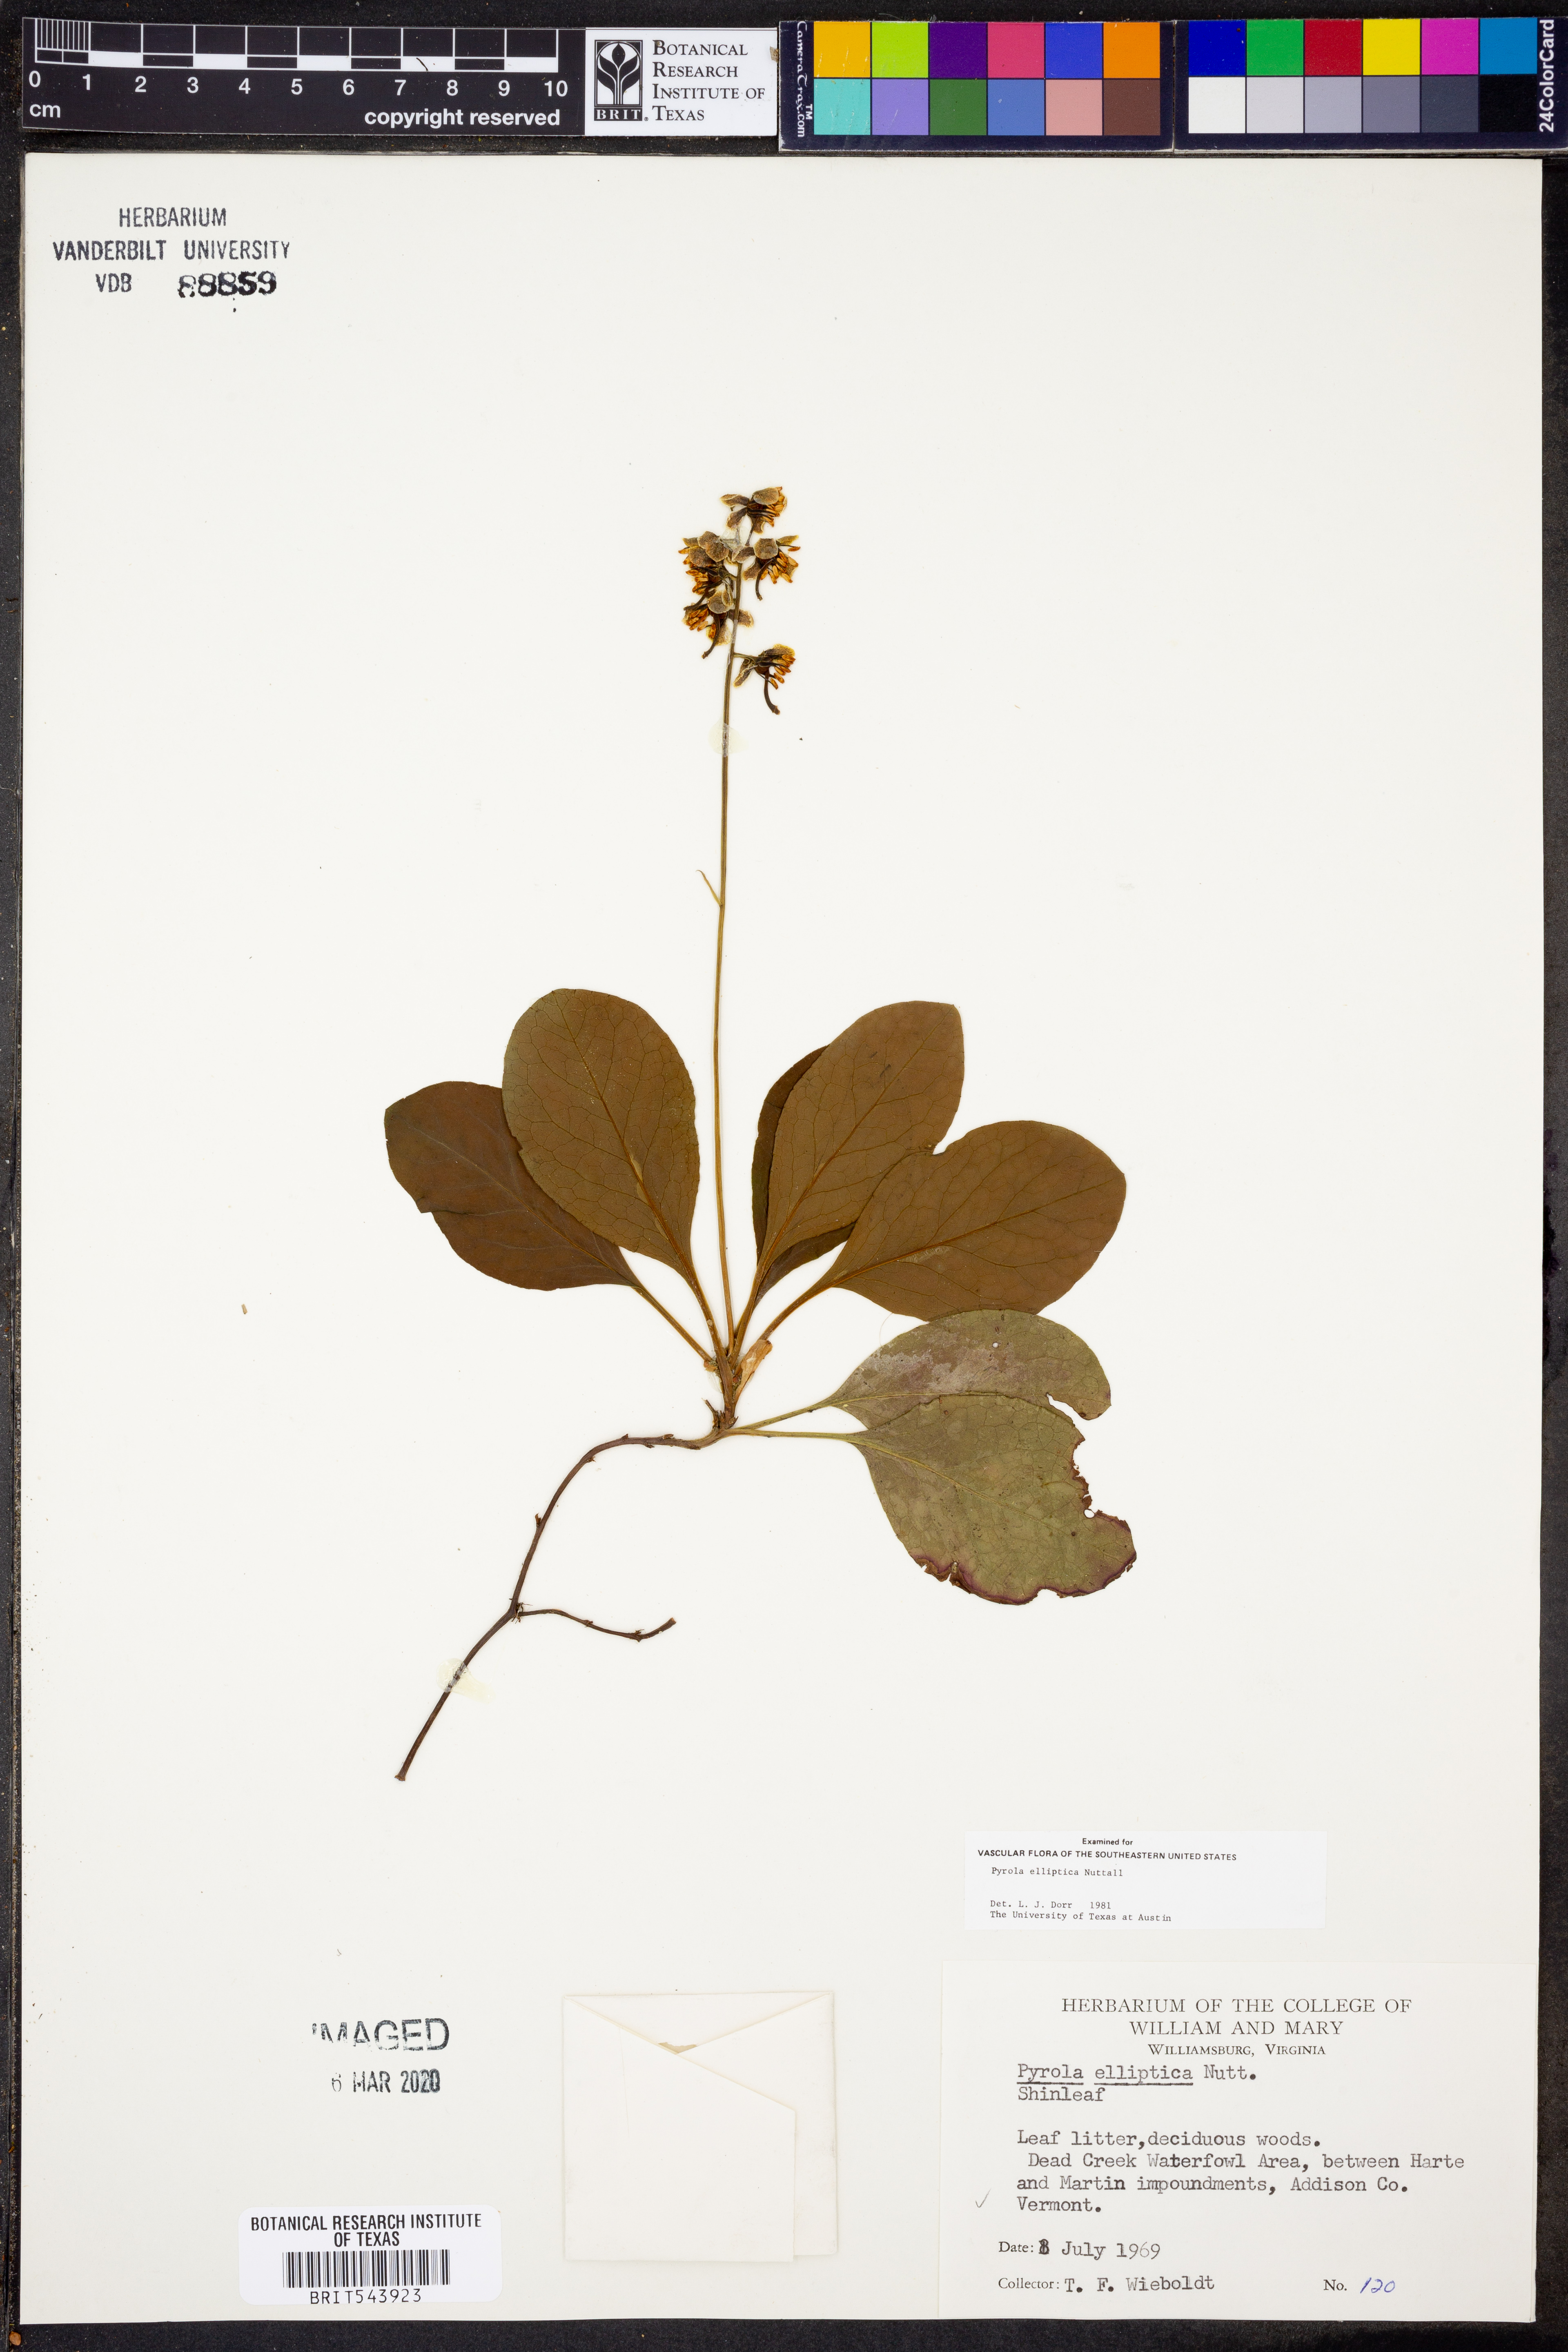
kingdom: Plantae
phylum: Tracheophyta
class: Magnoliopsida
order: Ericales
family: Ericaceae
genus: Pyrola
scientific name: Pyrola elliptica
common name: Shinleaf
